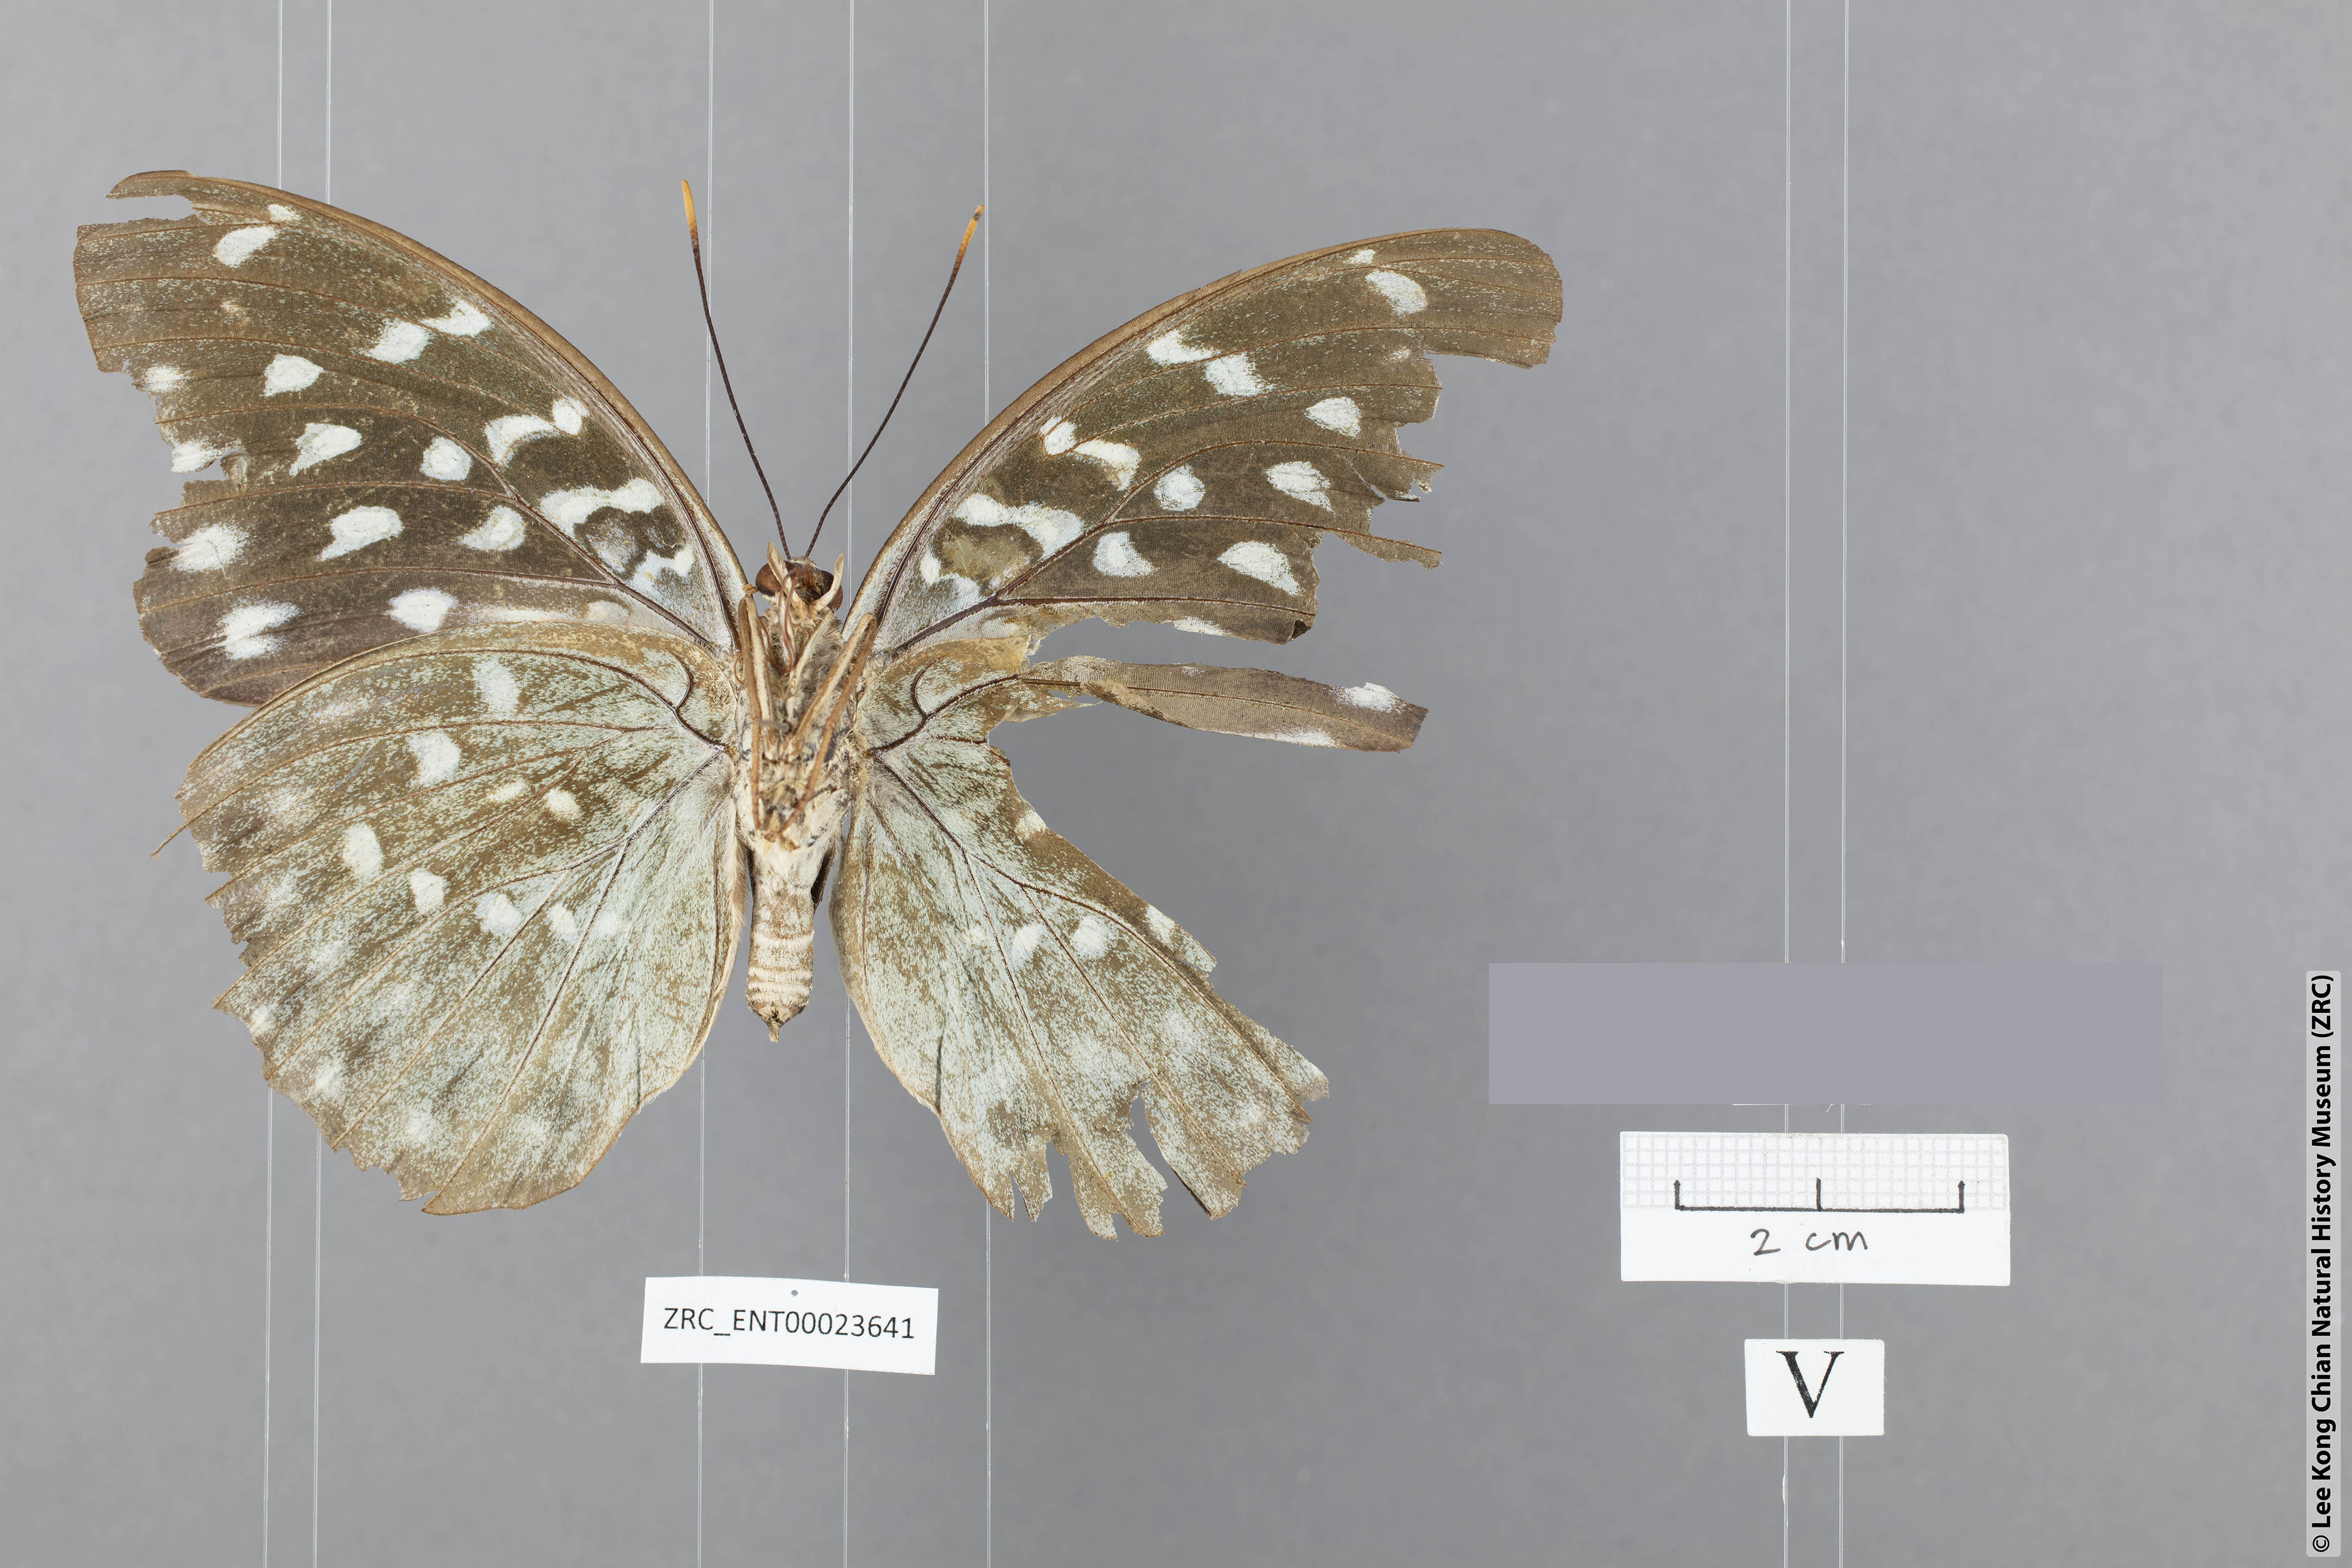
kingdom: Animalia
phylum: Arthropoda
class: Insecta
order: Lepidoptera
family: Nymphalidae
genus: Lexias
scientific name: Lexias
